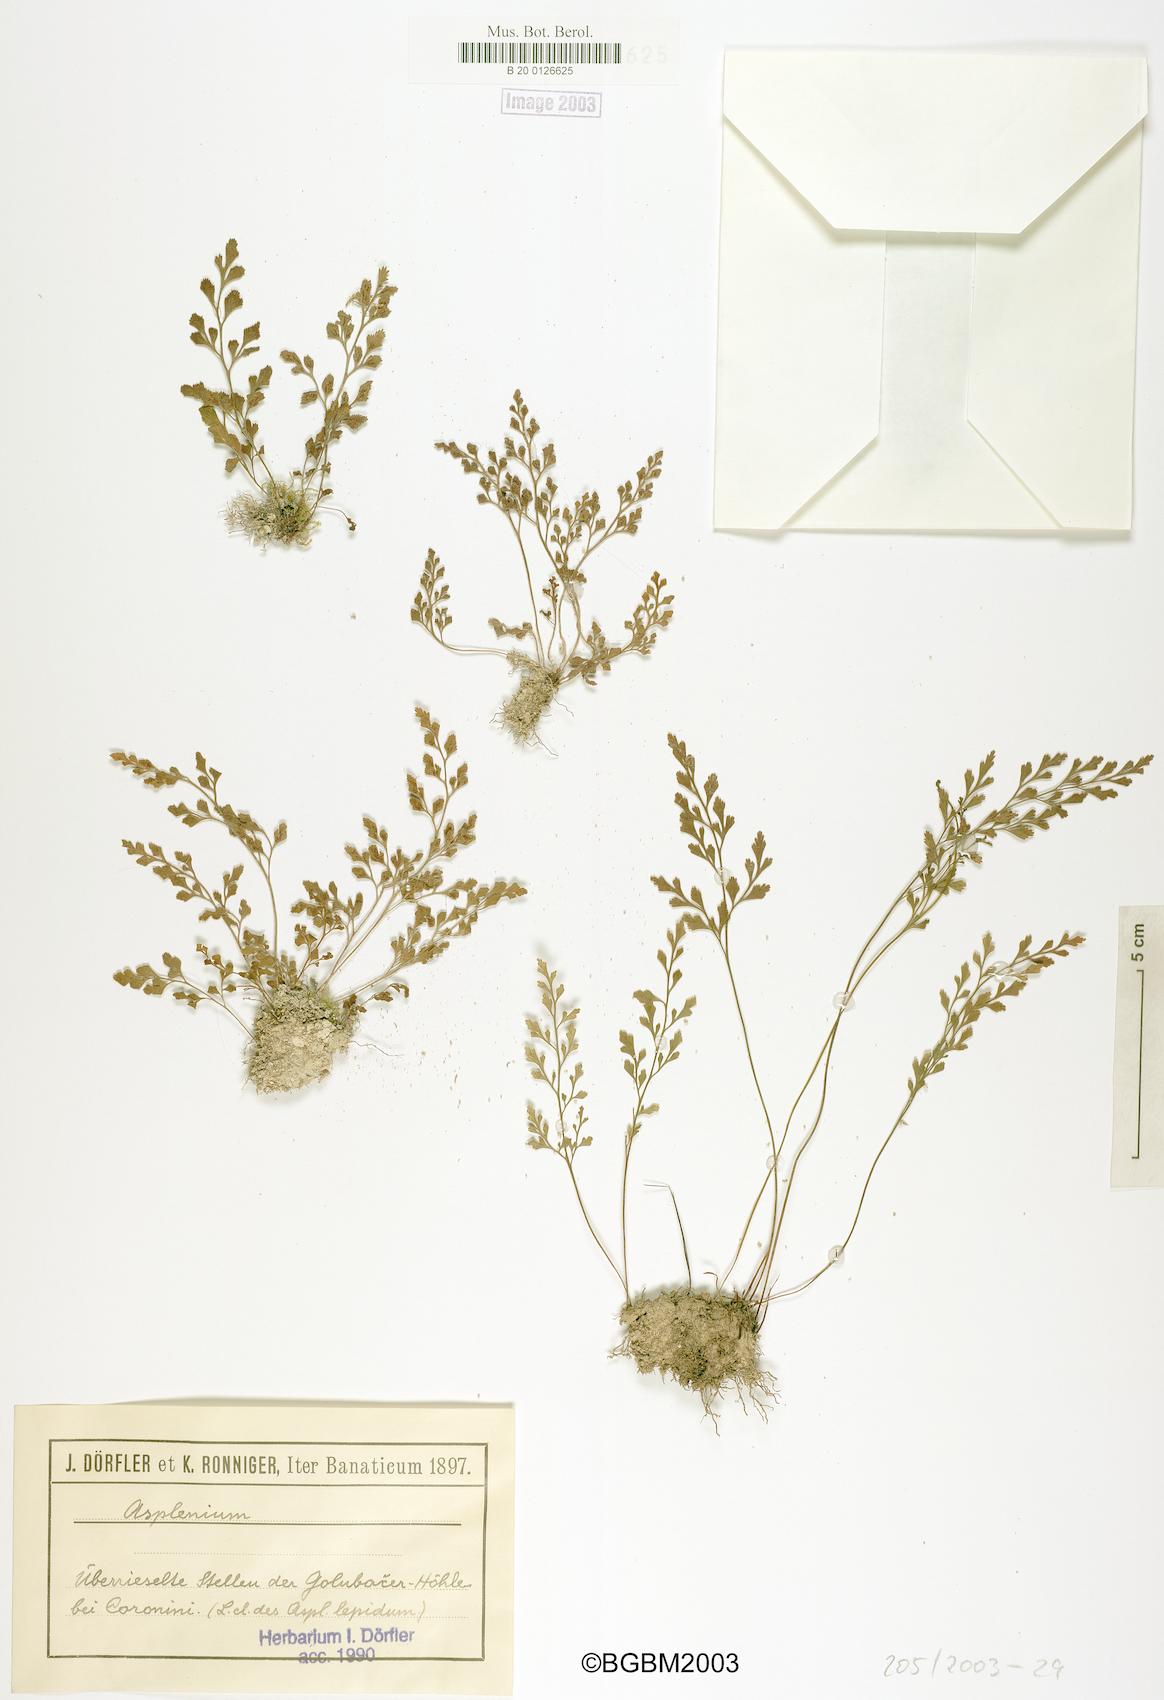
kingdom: Plantae
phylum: Tracheophyta
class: Polypodiopsida
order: Polypodiales
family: Aspleniaceae
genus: Asplenium
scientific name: Asplenium
